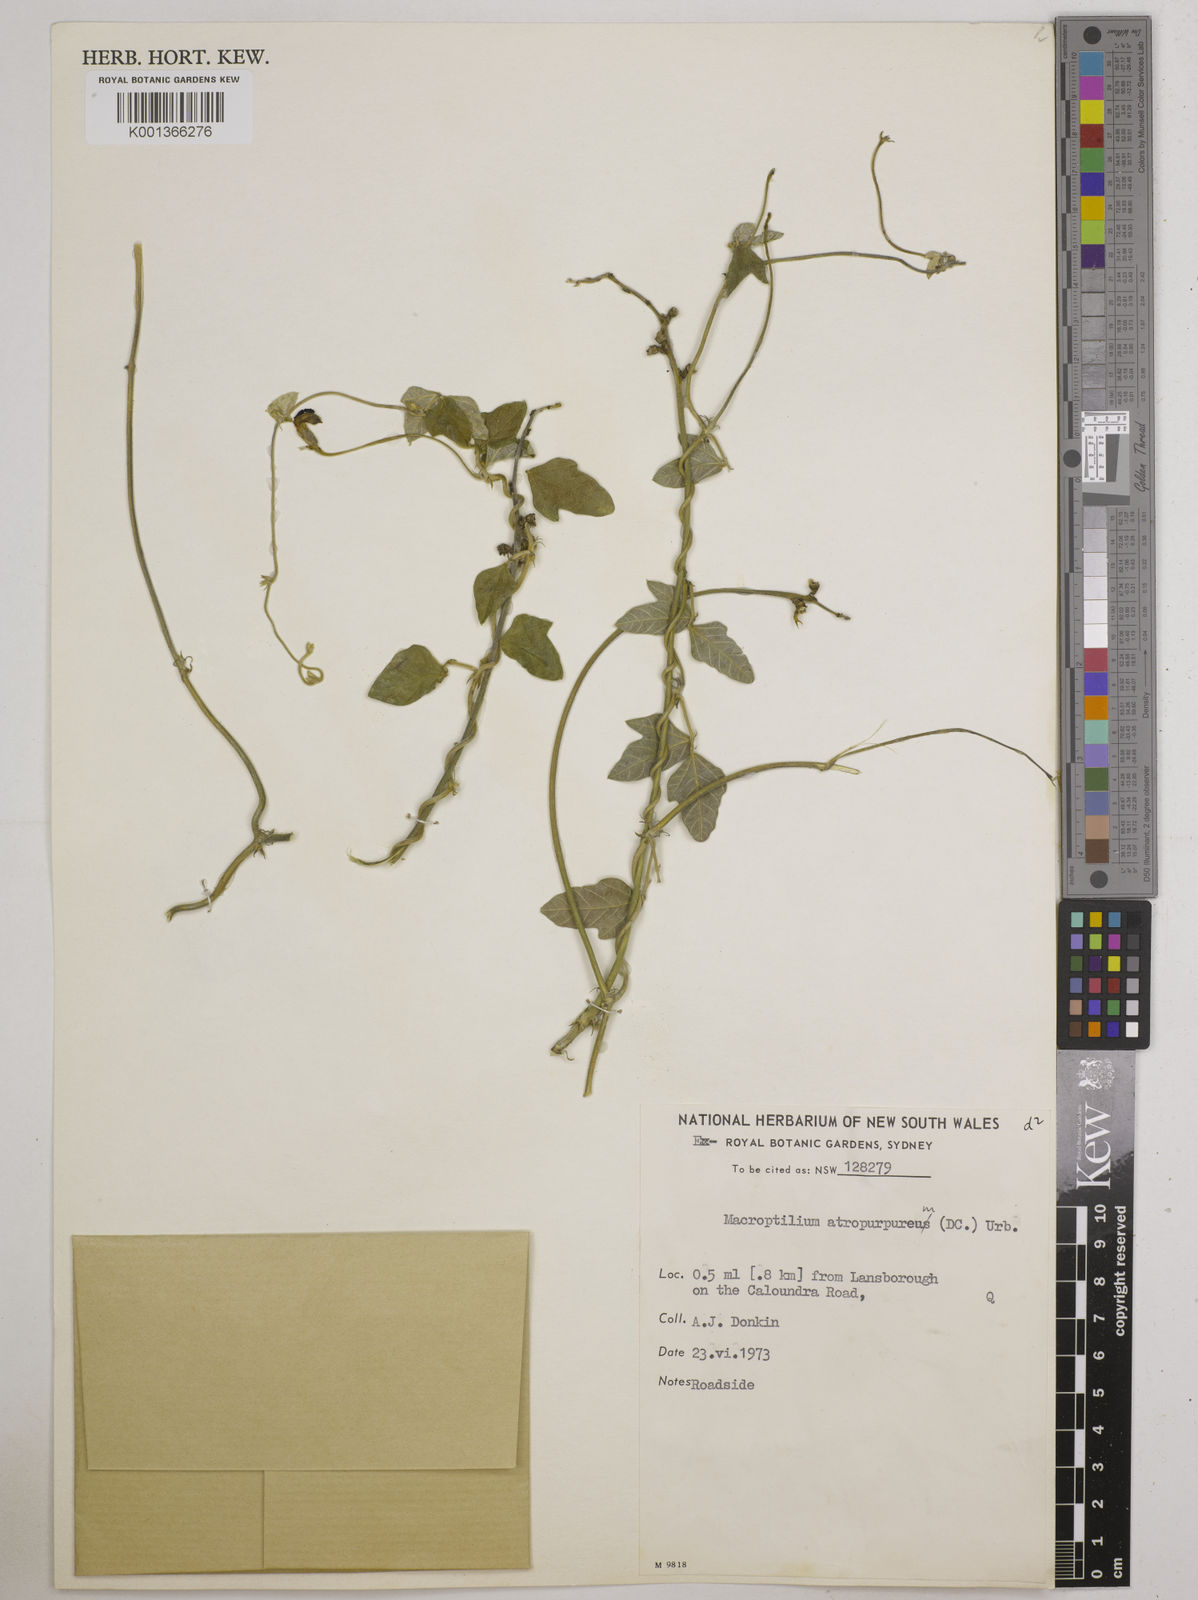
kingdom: Plantae
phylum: Tracheophyta
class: Magnoliopsida
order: Fabales
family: Fabaceae
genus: Macroptilium
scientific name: Macroptilium atropurpureum
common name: Purple bushbean
